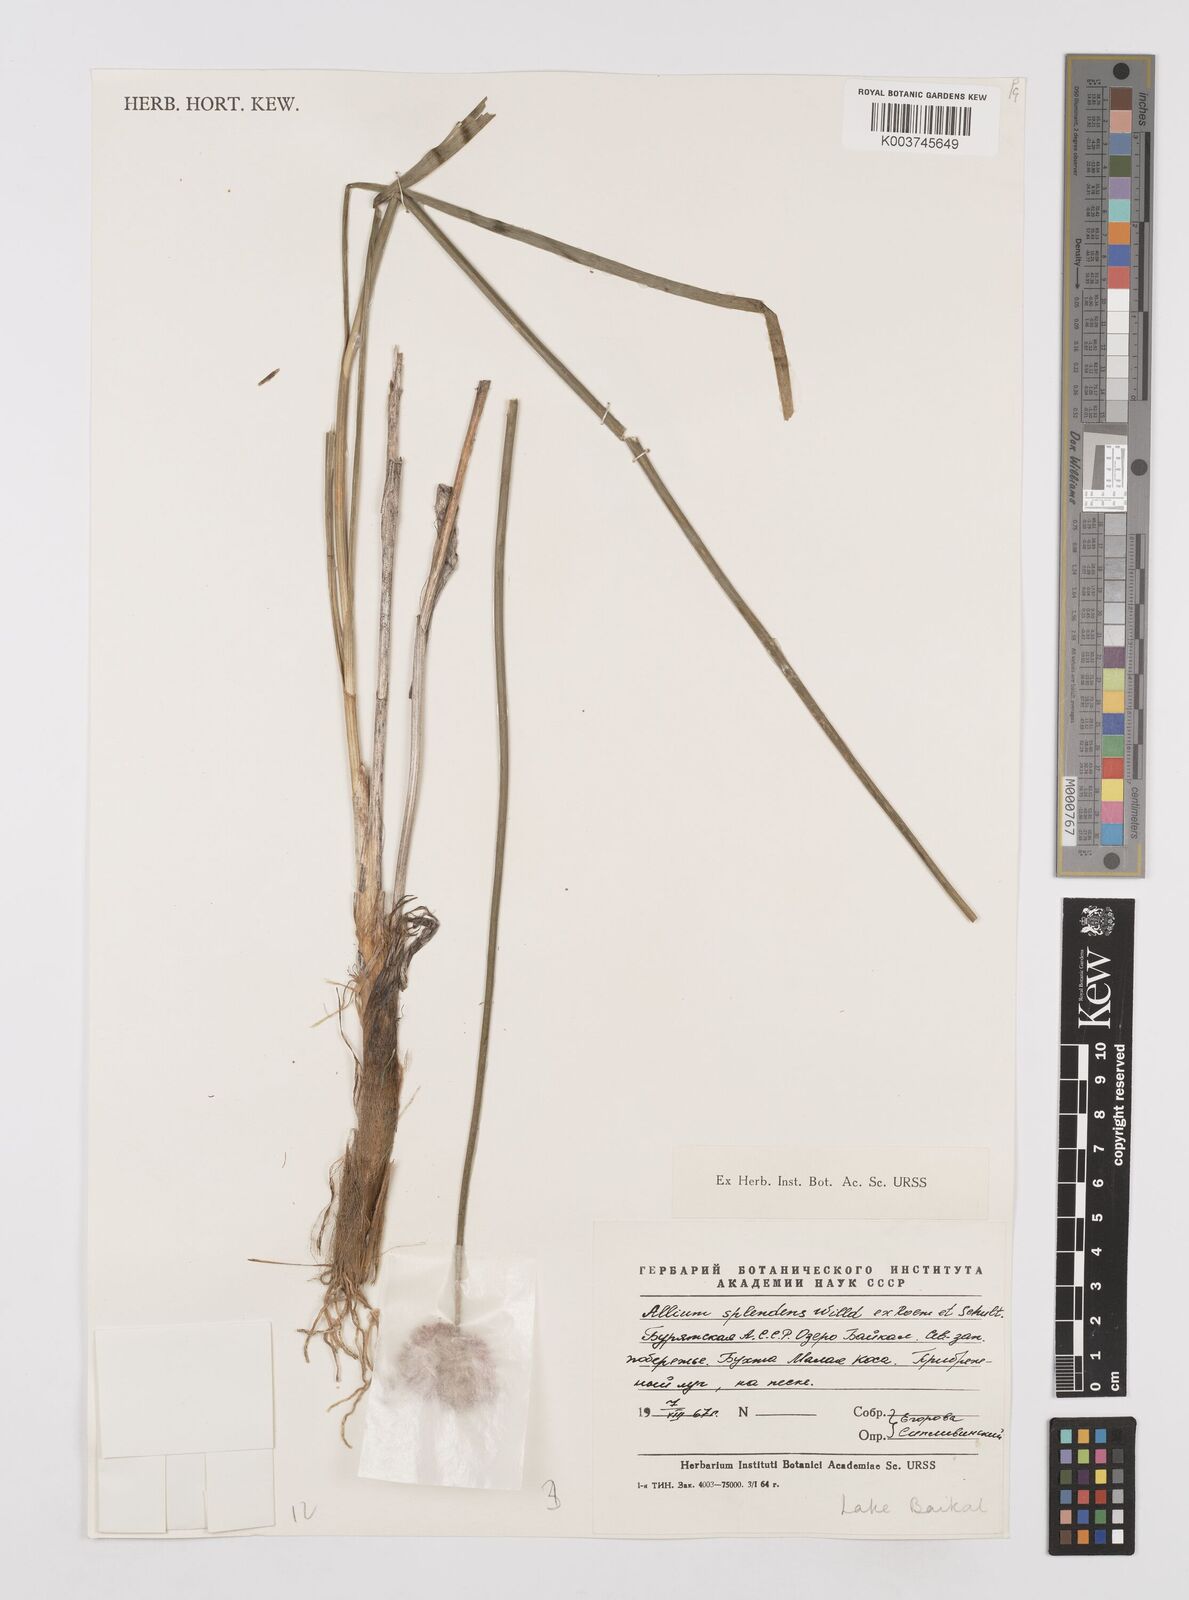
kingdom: Plantae
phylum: Tracheophyta
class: Liliopsida
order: Asparagales
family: Amaryllidaceae
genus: Allium
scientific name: Allium chinense
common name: Japanese scallion
